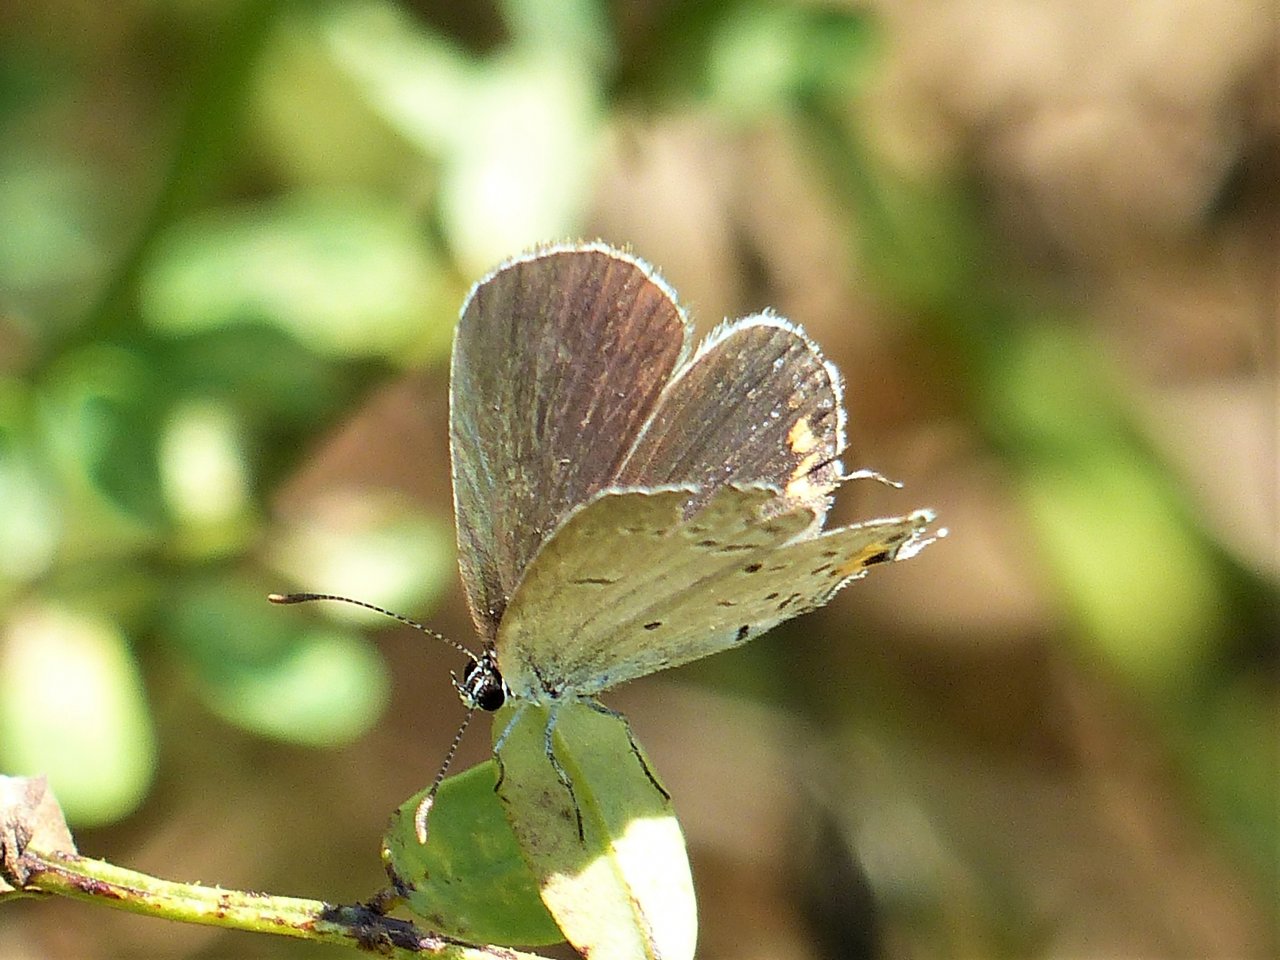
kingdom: Animalia
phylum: Arthropoda
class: Insecta
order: Lepidoptera
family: Lycaenidae
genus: Elkalyce
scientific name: Elkalyce comyntas
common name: Eastern Tailed-Blue
